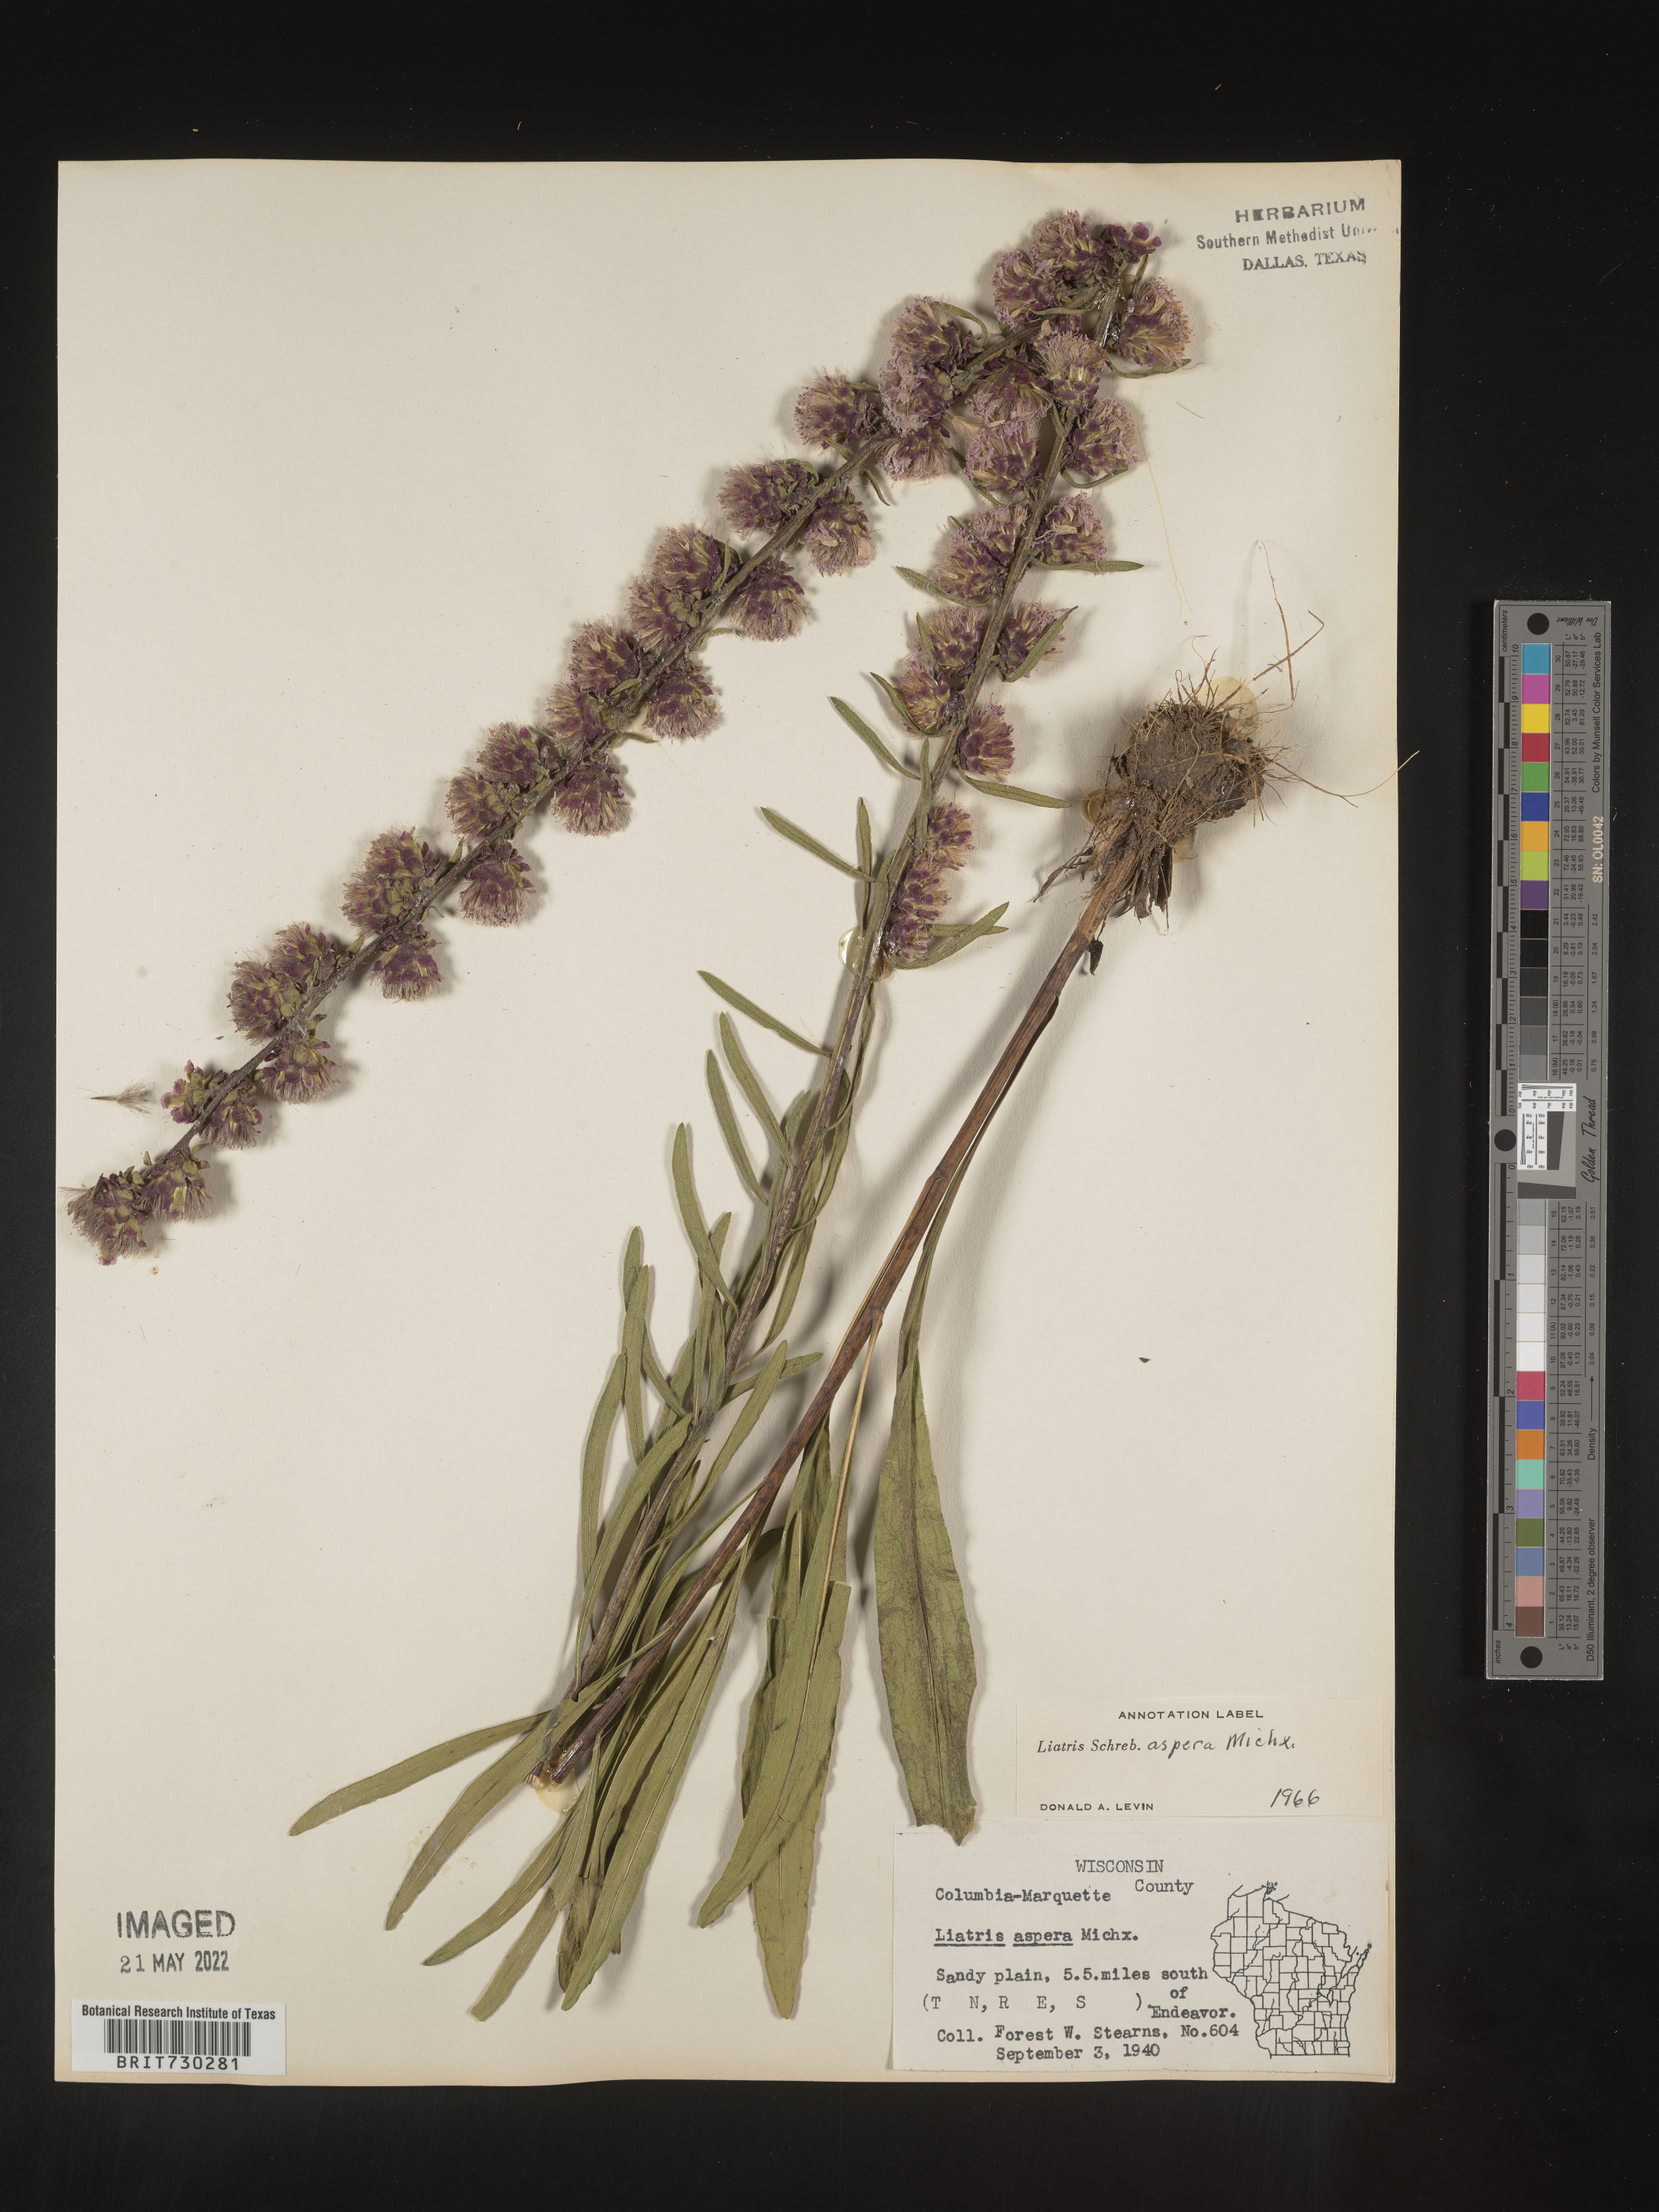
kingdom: Plantae
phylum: Tracheophyta
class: Magnoliopsida
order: Asterales
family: Asteraceae
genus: Liatris
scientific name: Liatris aspera
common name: Lacerate blazing-star
